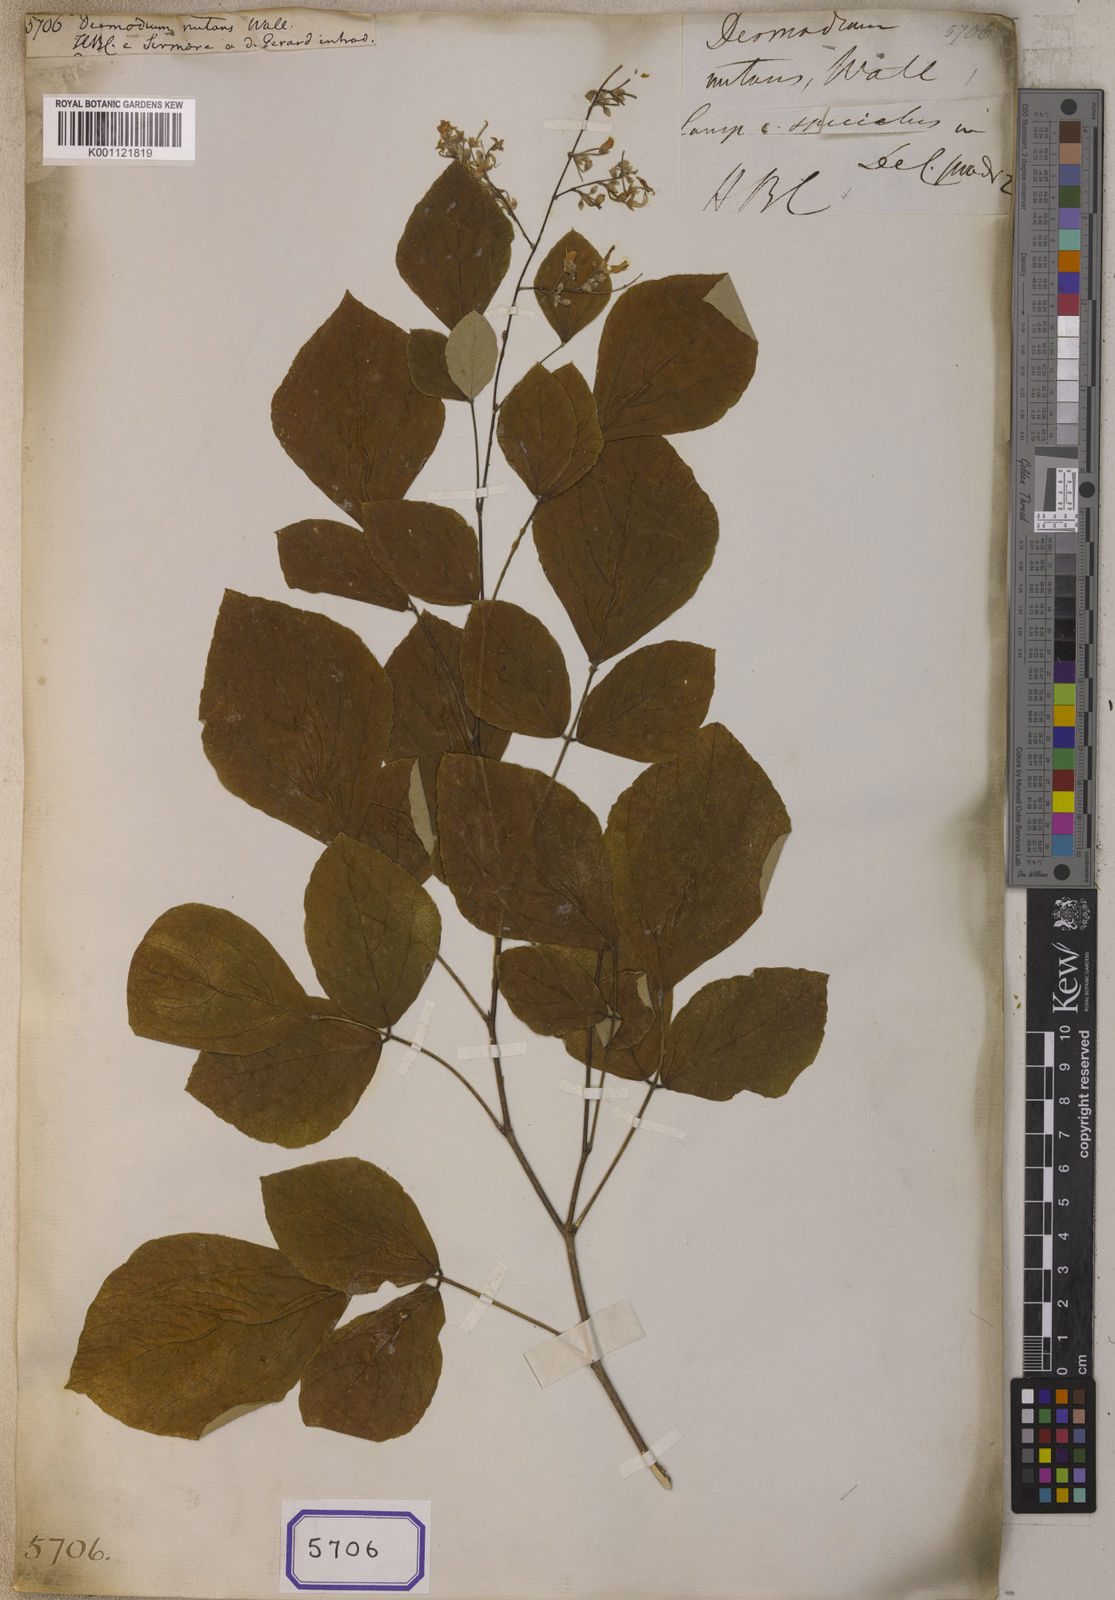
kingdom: Plantae
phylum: Tracheophyta
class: Magnoliopsida
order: Fabales
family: Fabaceae
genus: Desmodium
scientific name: Desmodium
